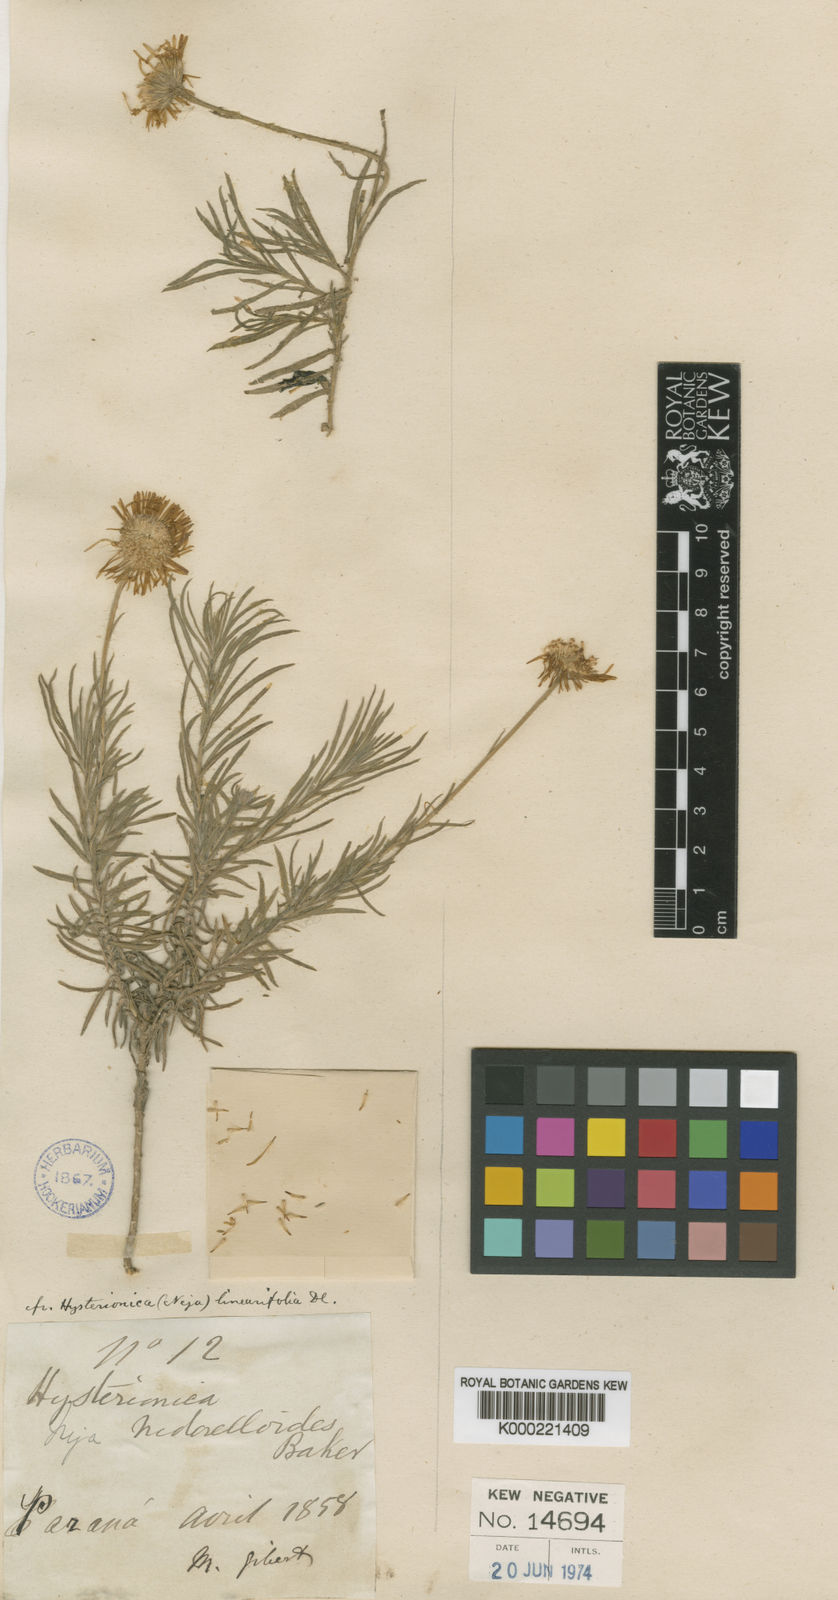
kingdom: Plantae
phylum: Tracheophyta
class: Magnoliopsida
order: Asterales
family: Asteraceae
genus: Hysterionica
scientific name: Hysterionica resinosa
